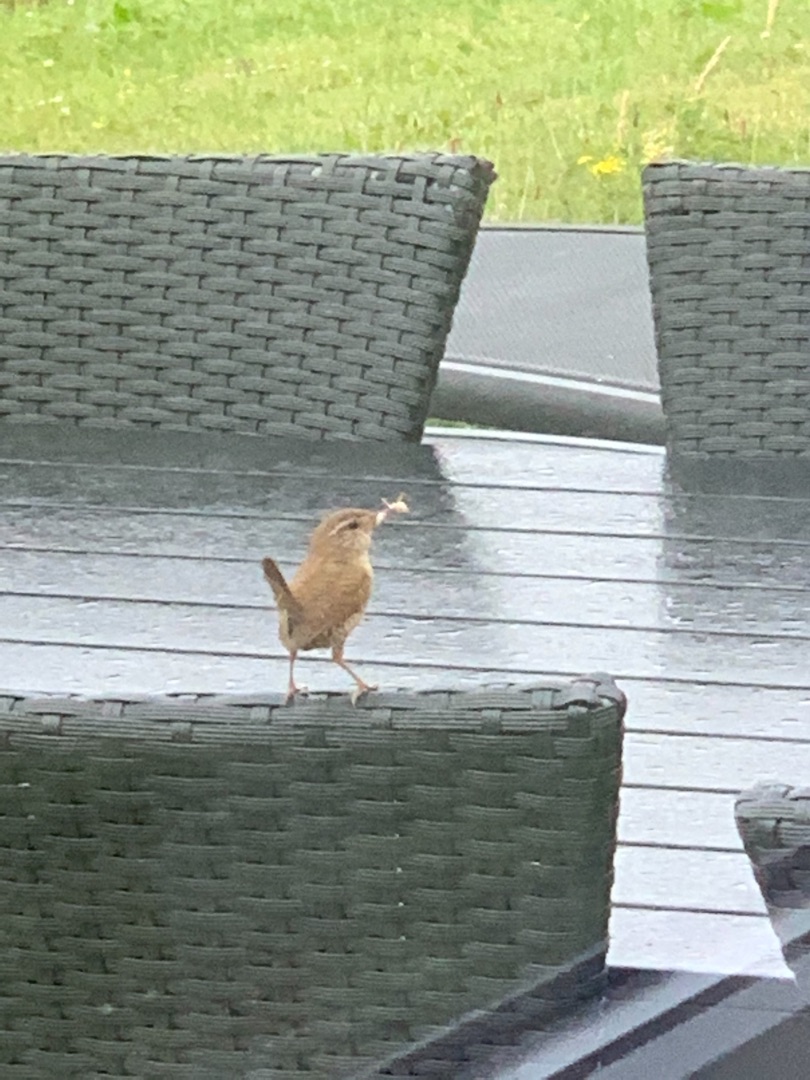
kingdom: Animalia
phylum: Chordata
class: Aves
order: Passeriformes
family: Troglodytidae
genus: Troglodytes
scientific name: Troglodytes troglodytes
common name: Gærdesmutte
